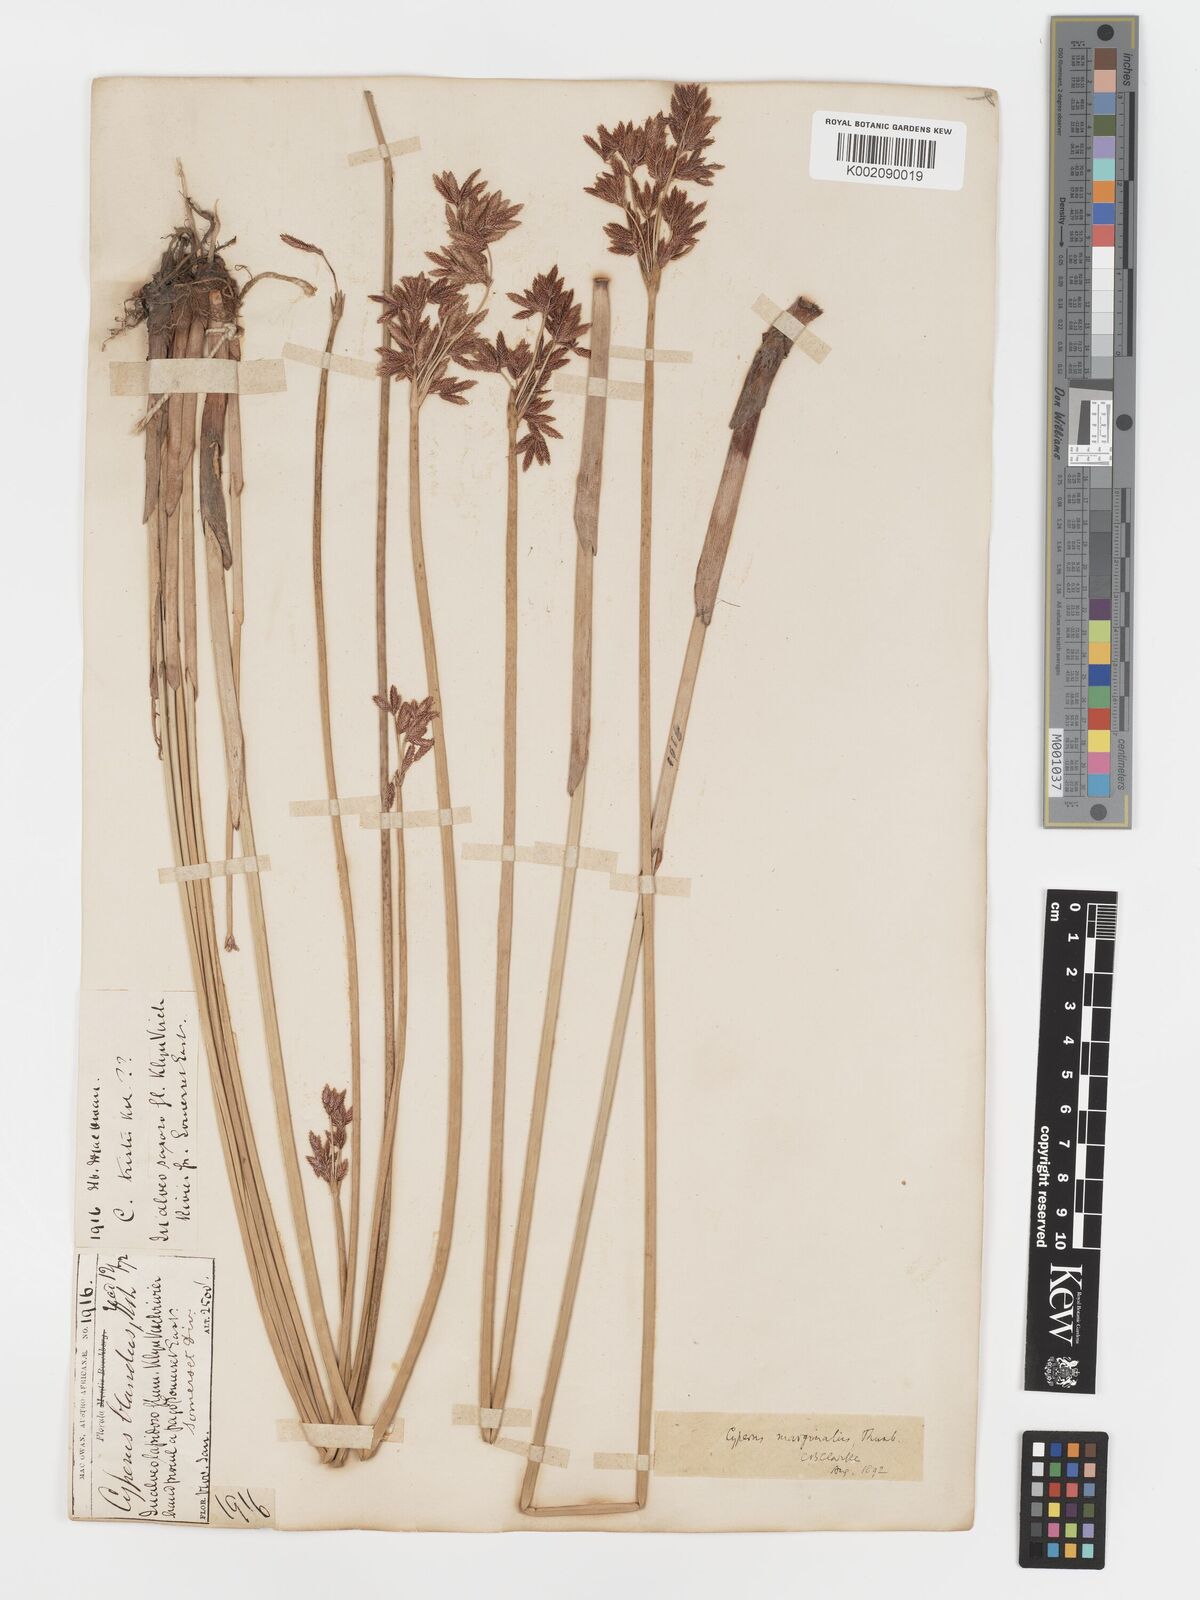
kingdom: Plantae
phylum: Tracheophyta
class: Liliopsida
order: Poales
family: Cyperaceae
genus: Cyperus
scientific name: Cyperus marginatus
